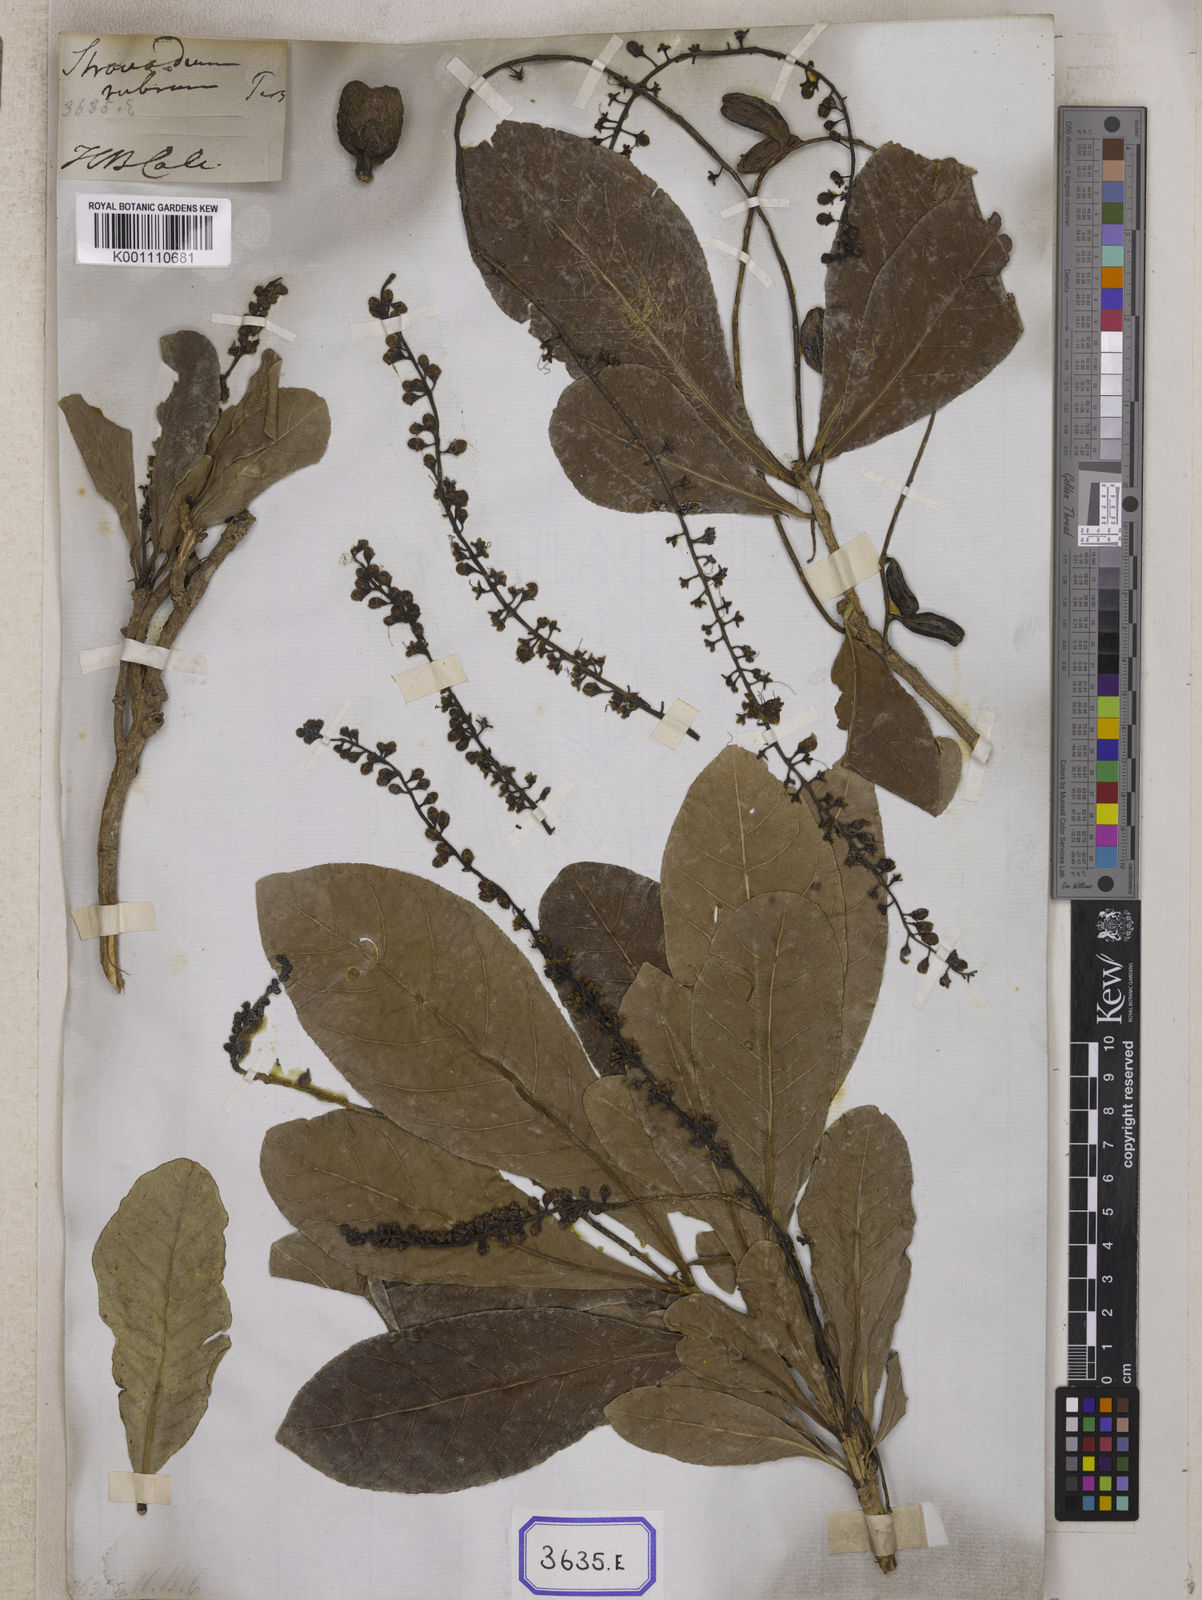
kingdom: Plantae
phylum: Tracheophyta
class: Magnoliopsida
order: Ericales
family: Lecythidaceae
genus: Barringtonia
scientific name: Barringtonia acutangula
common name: Freshwater mangrove
